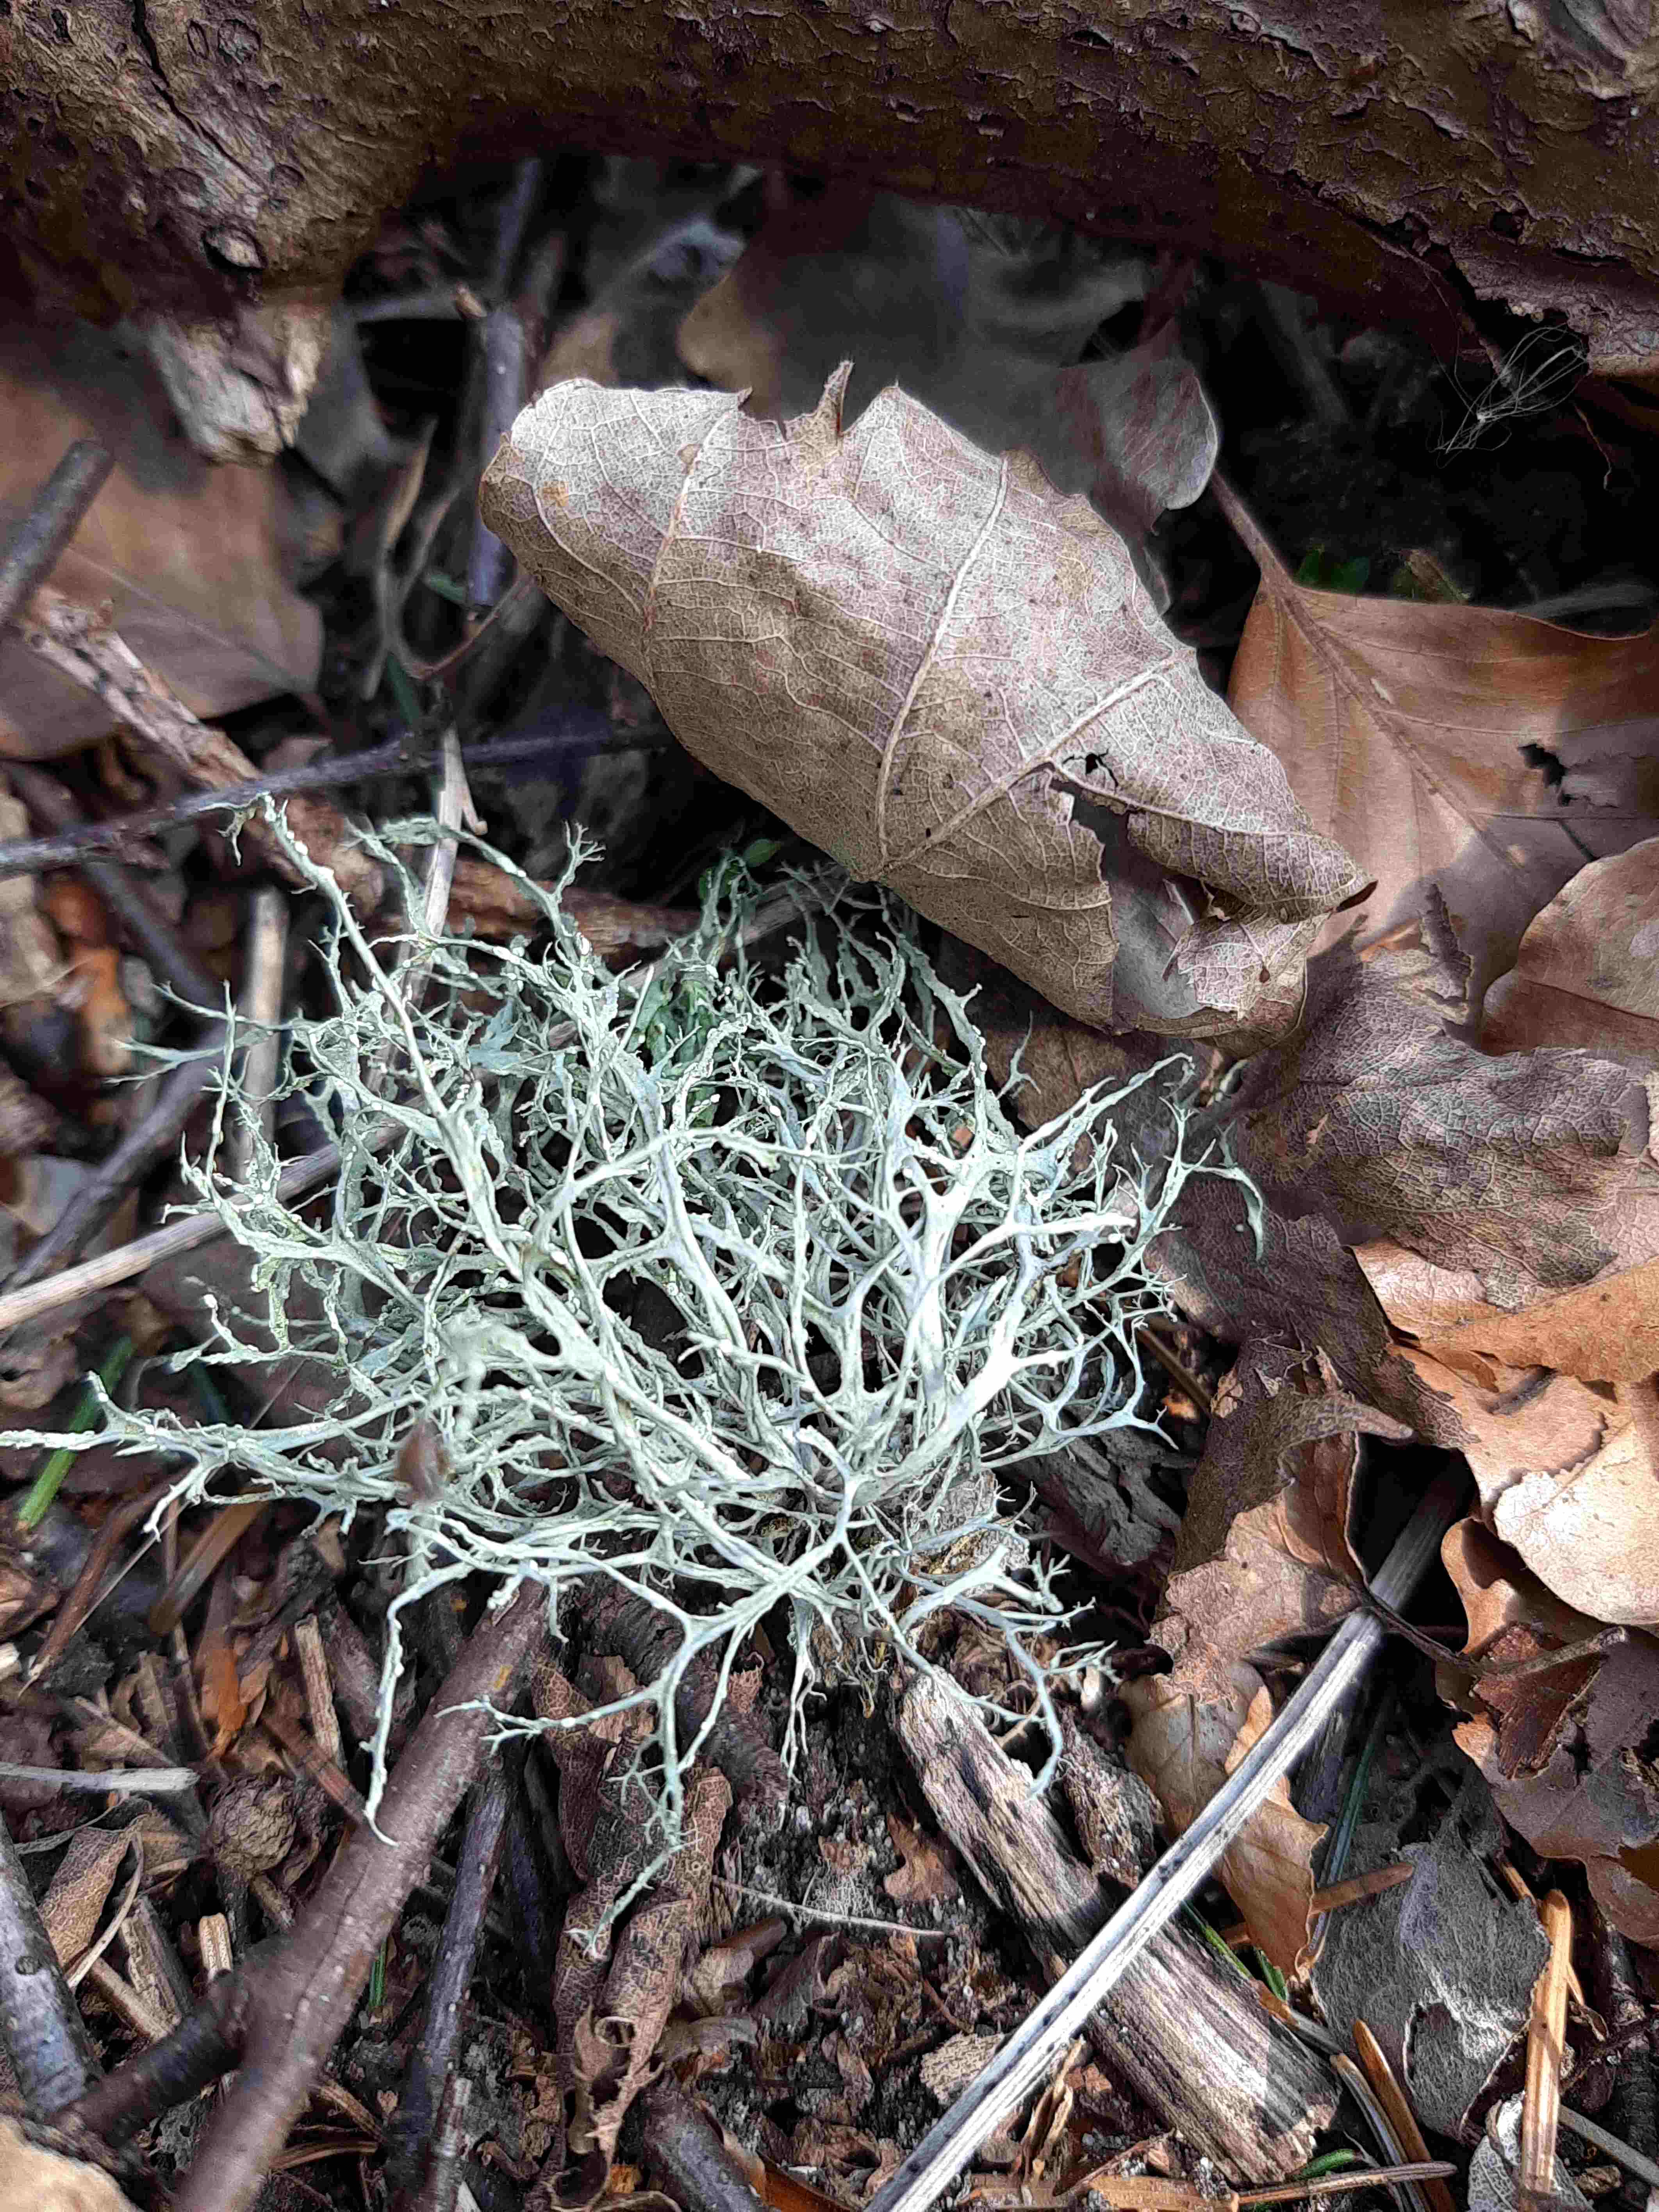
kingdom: Fungi
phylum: Ascomycota
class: Lecanoromycetes
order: Lecanorales
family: Ramalinaceae
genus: Ramalina
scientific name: Ramalina farinacea
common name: melet grenlav
